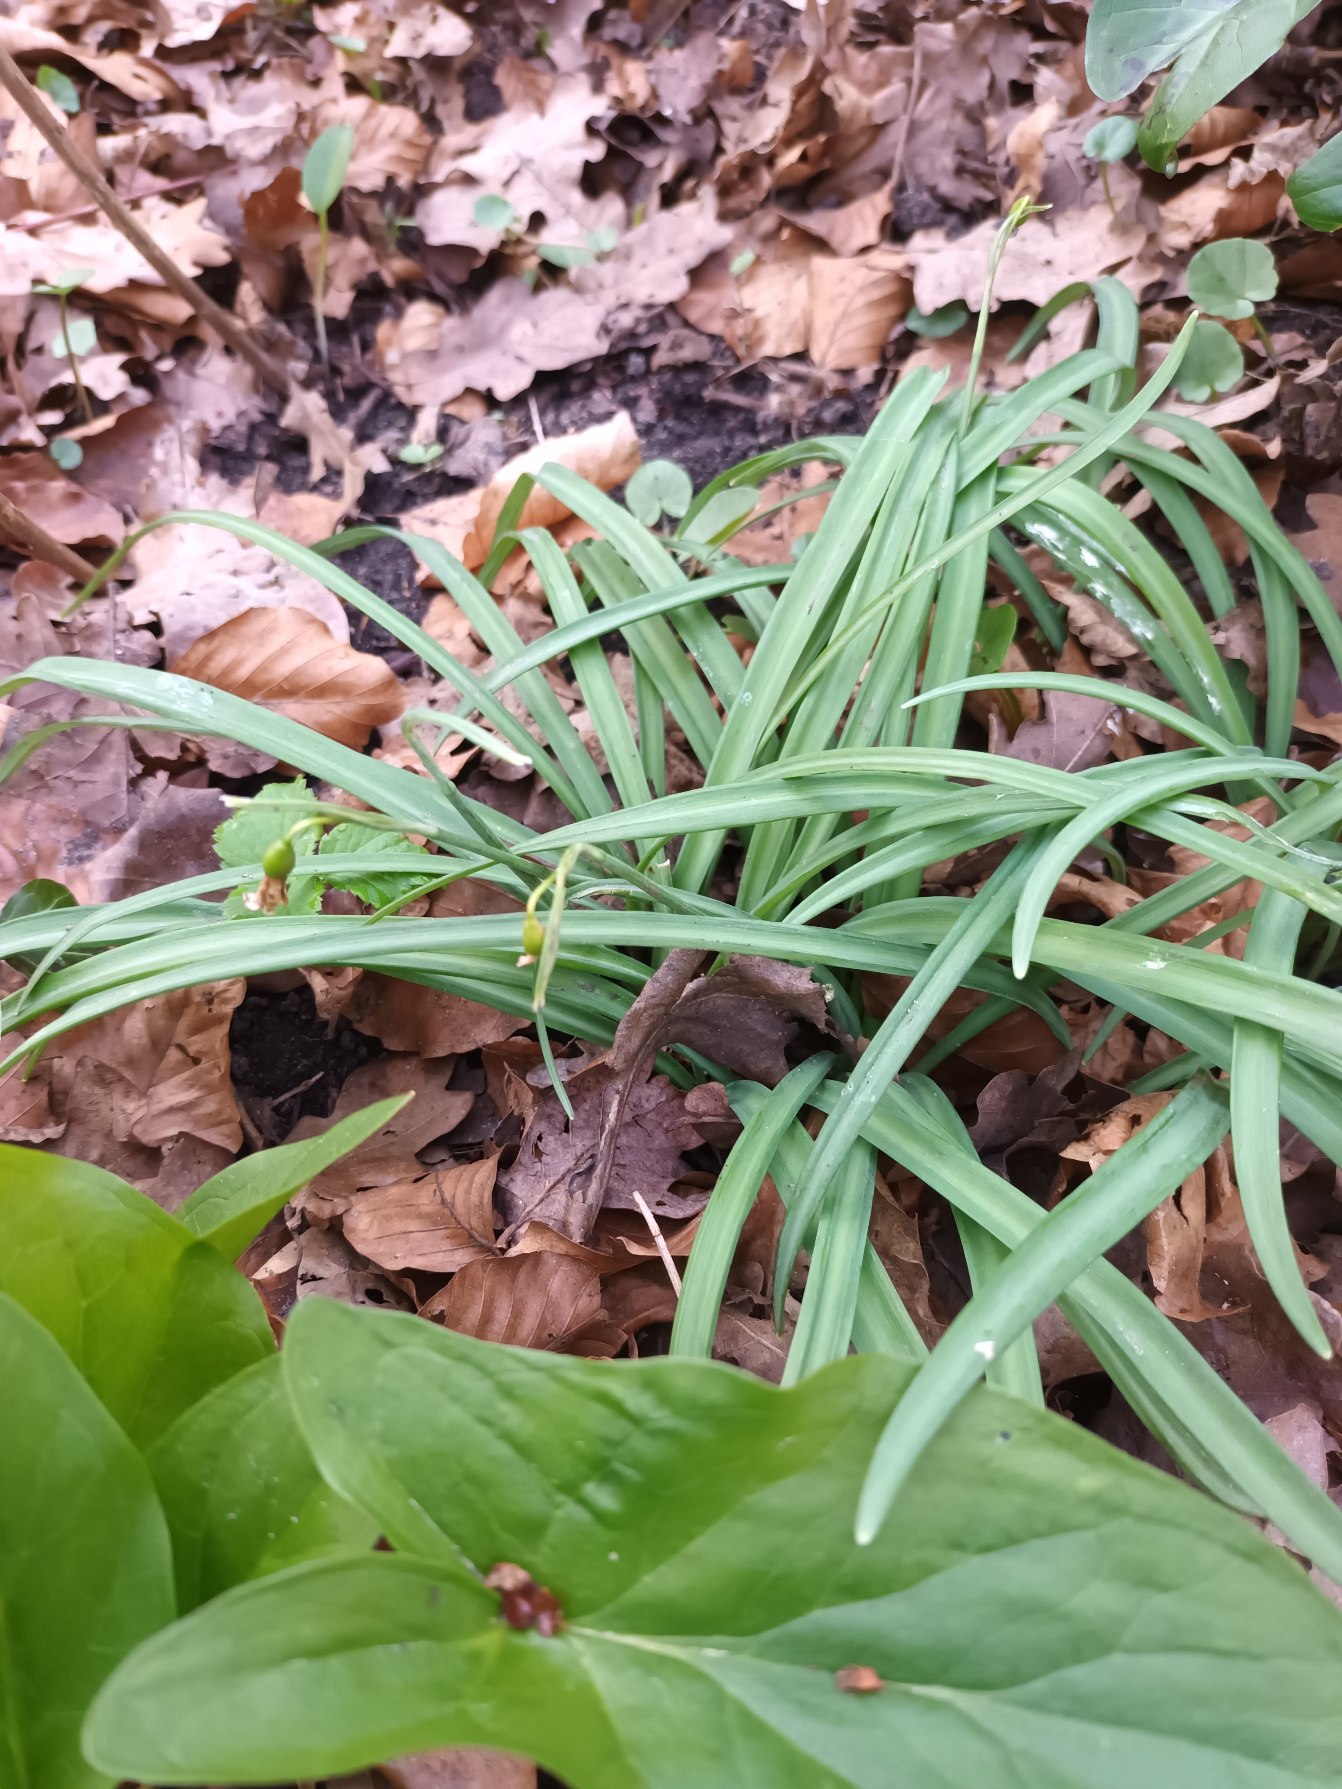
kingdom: Plantae
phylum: Tracheophyta
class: Liliopsida
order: Asparagales
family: Amaryllidaceae
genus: Galanthus
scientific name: Galanthus nivalis
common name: Vintergæk
